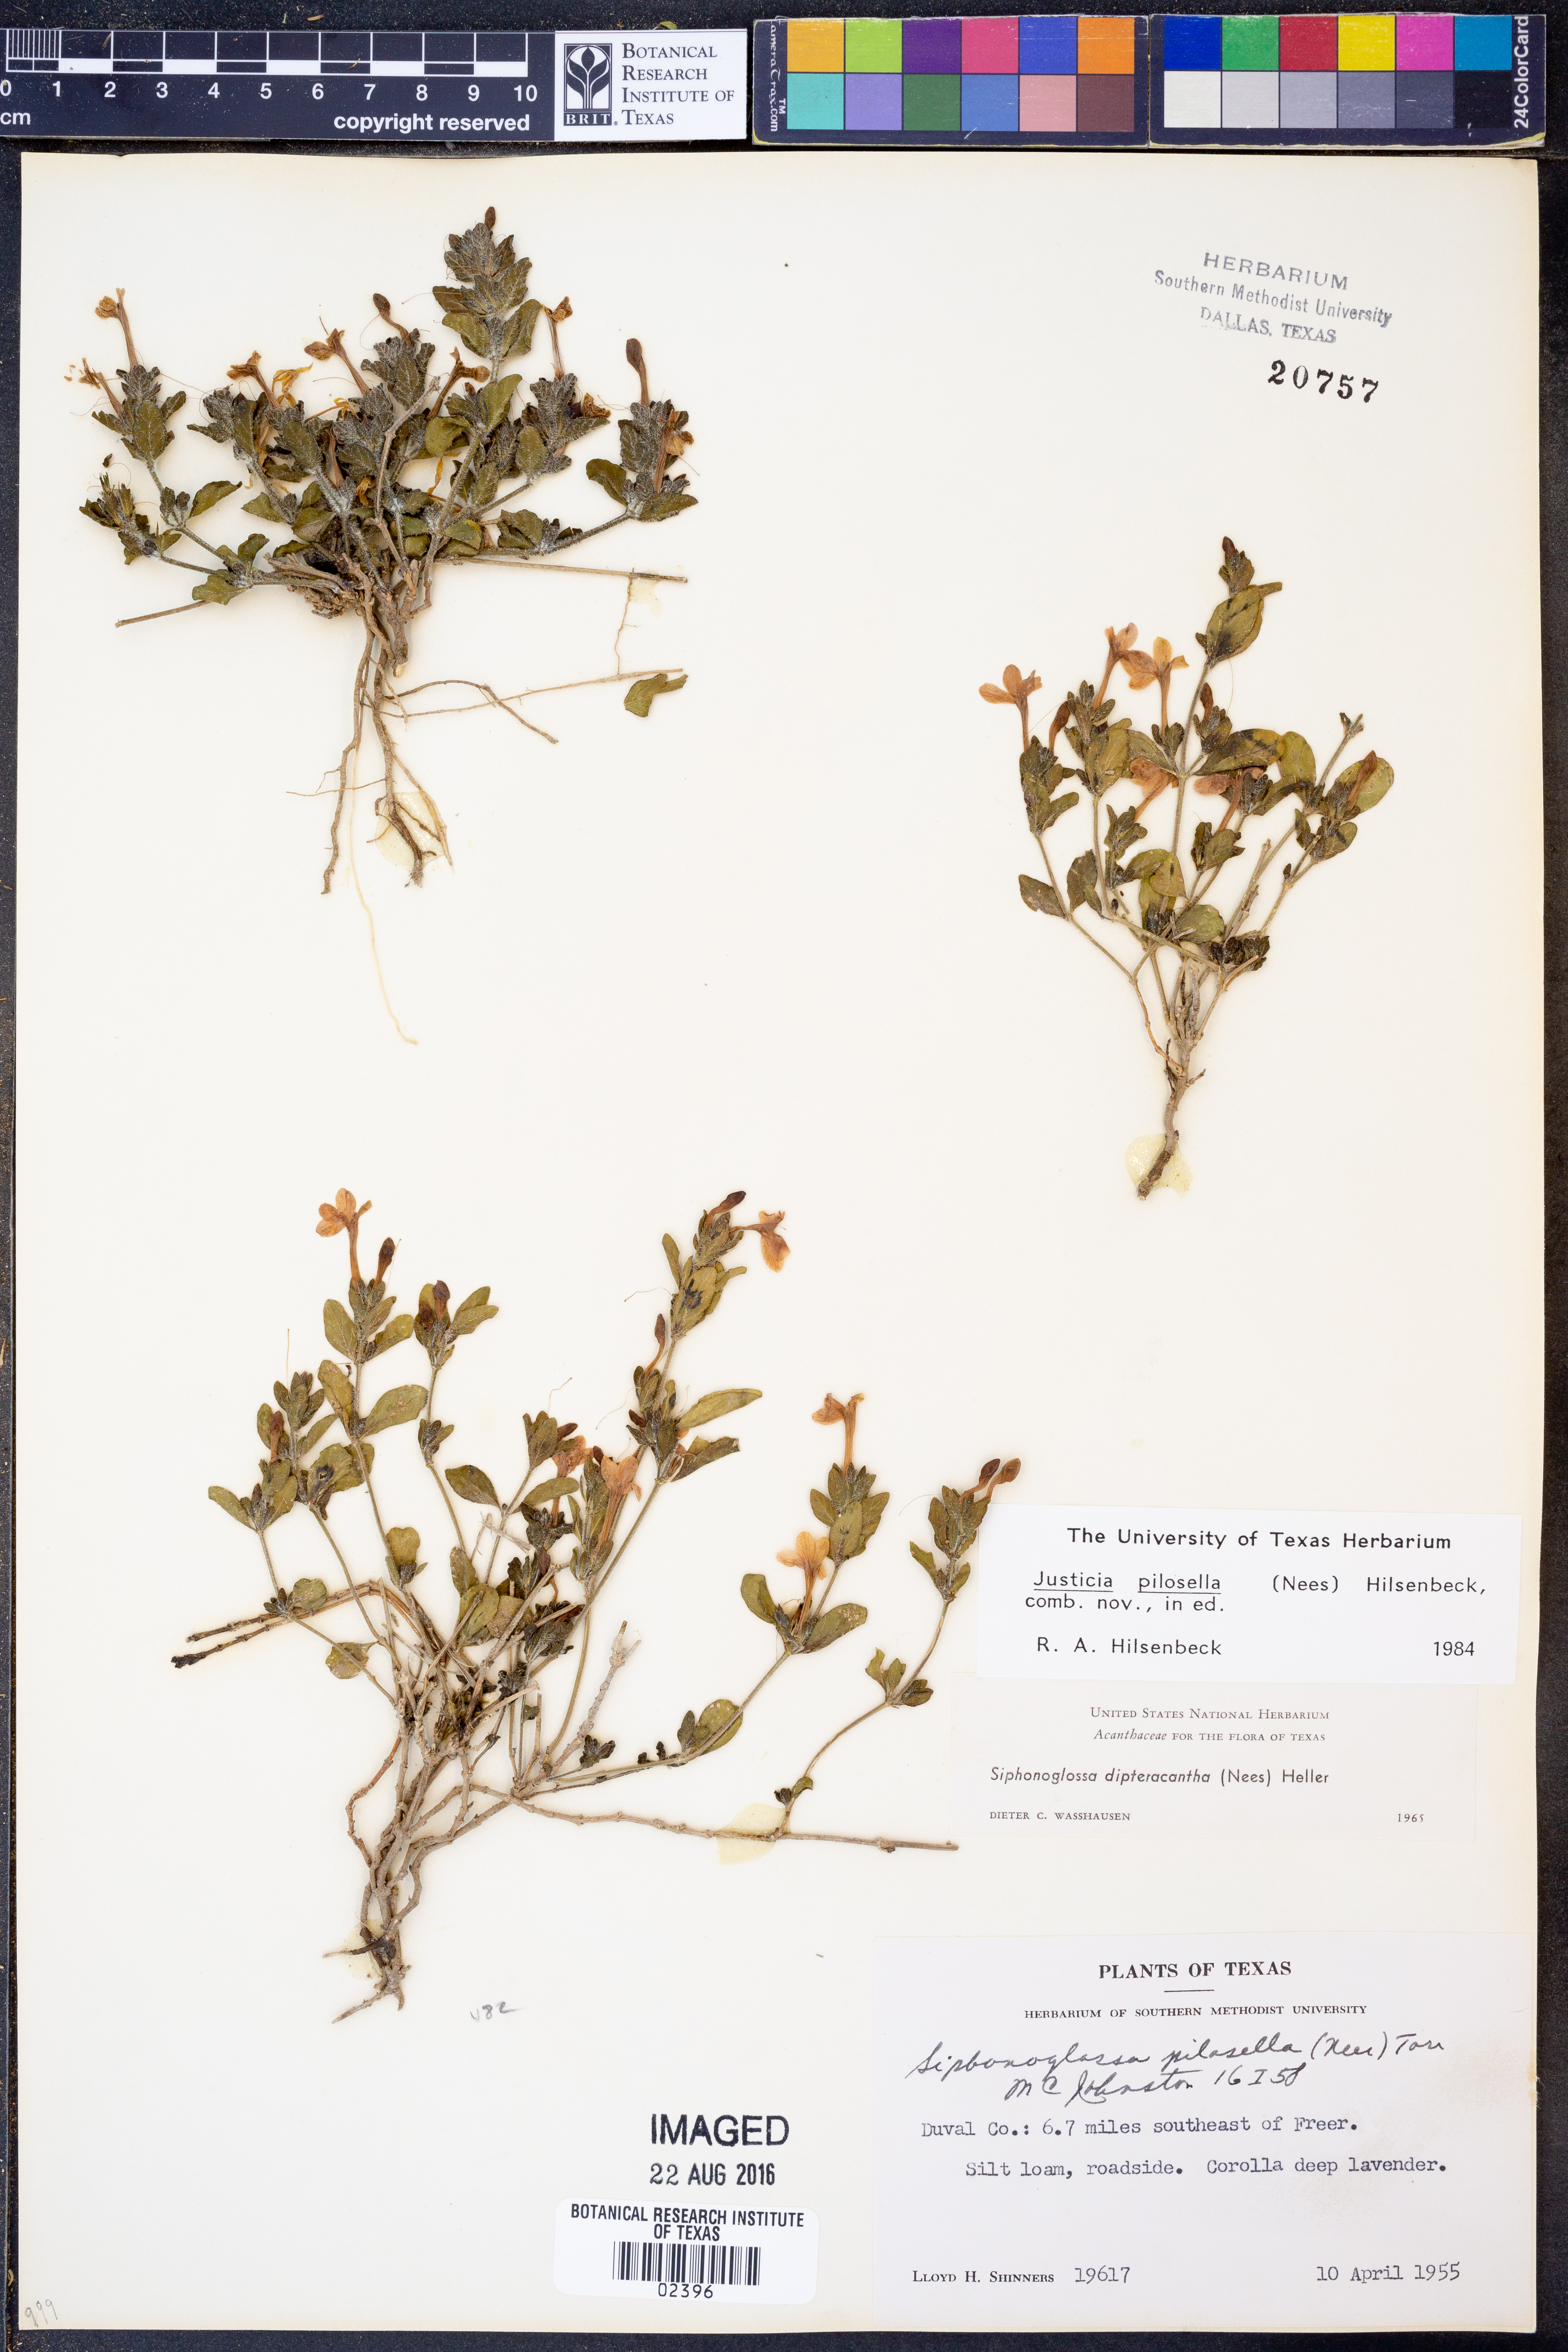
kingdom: Plantae
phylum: Tracheophyta
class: Magnoliopsida
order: Lamiales
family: Acanthaceae
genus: Justicia
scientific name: Justicia pilosella
